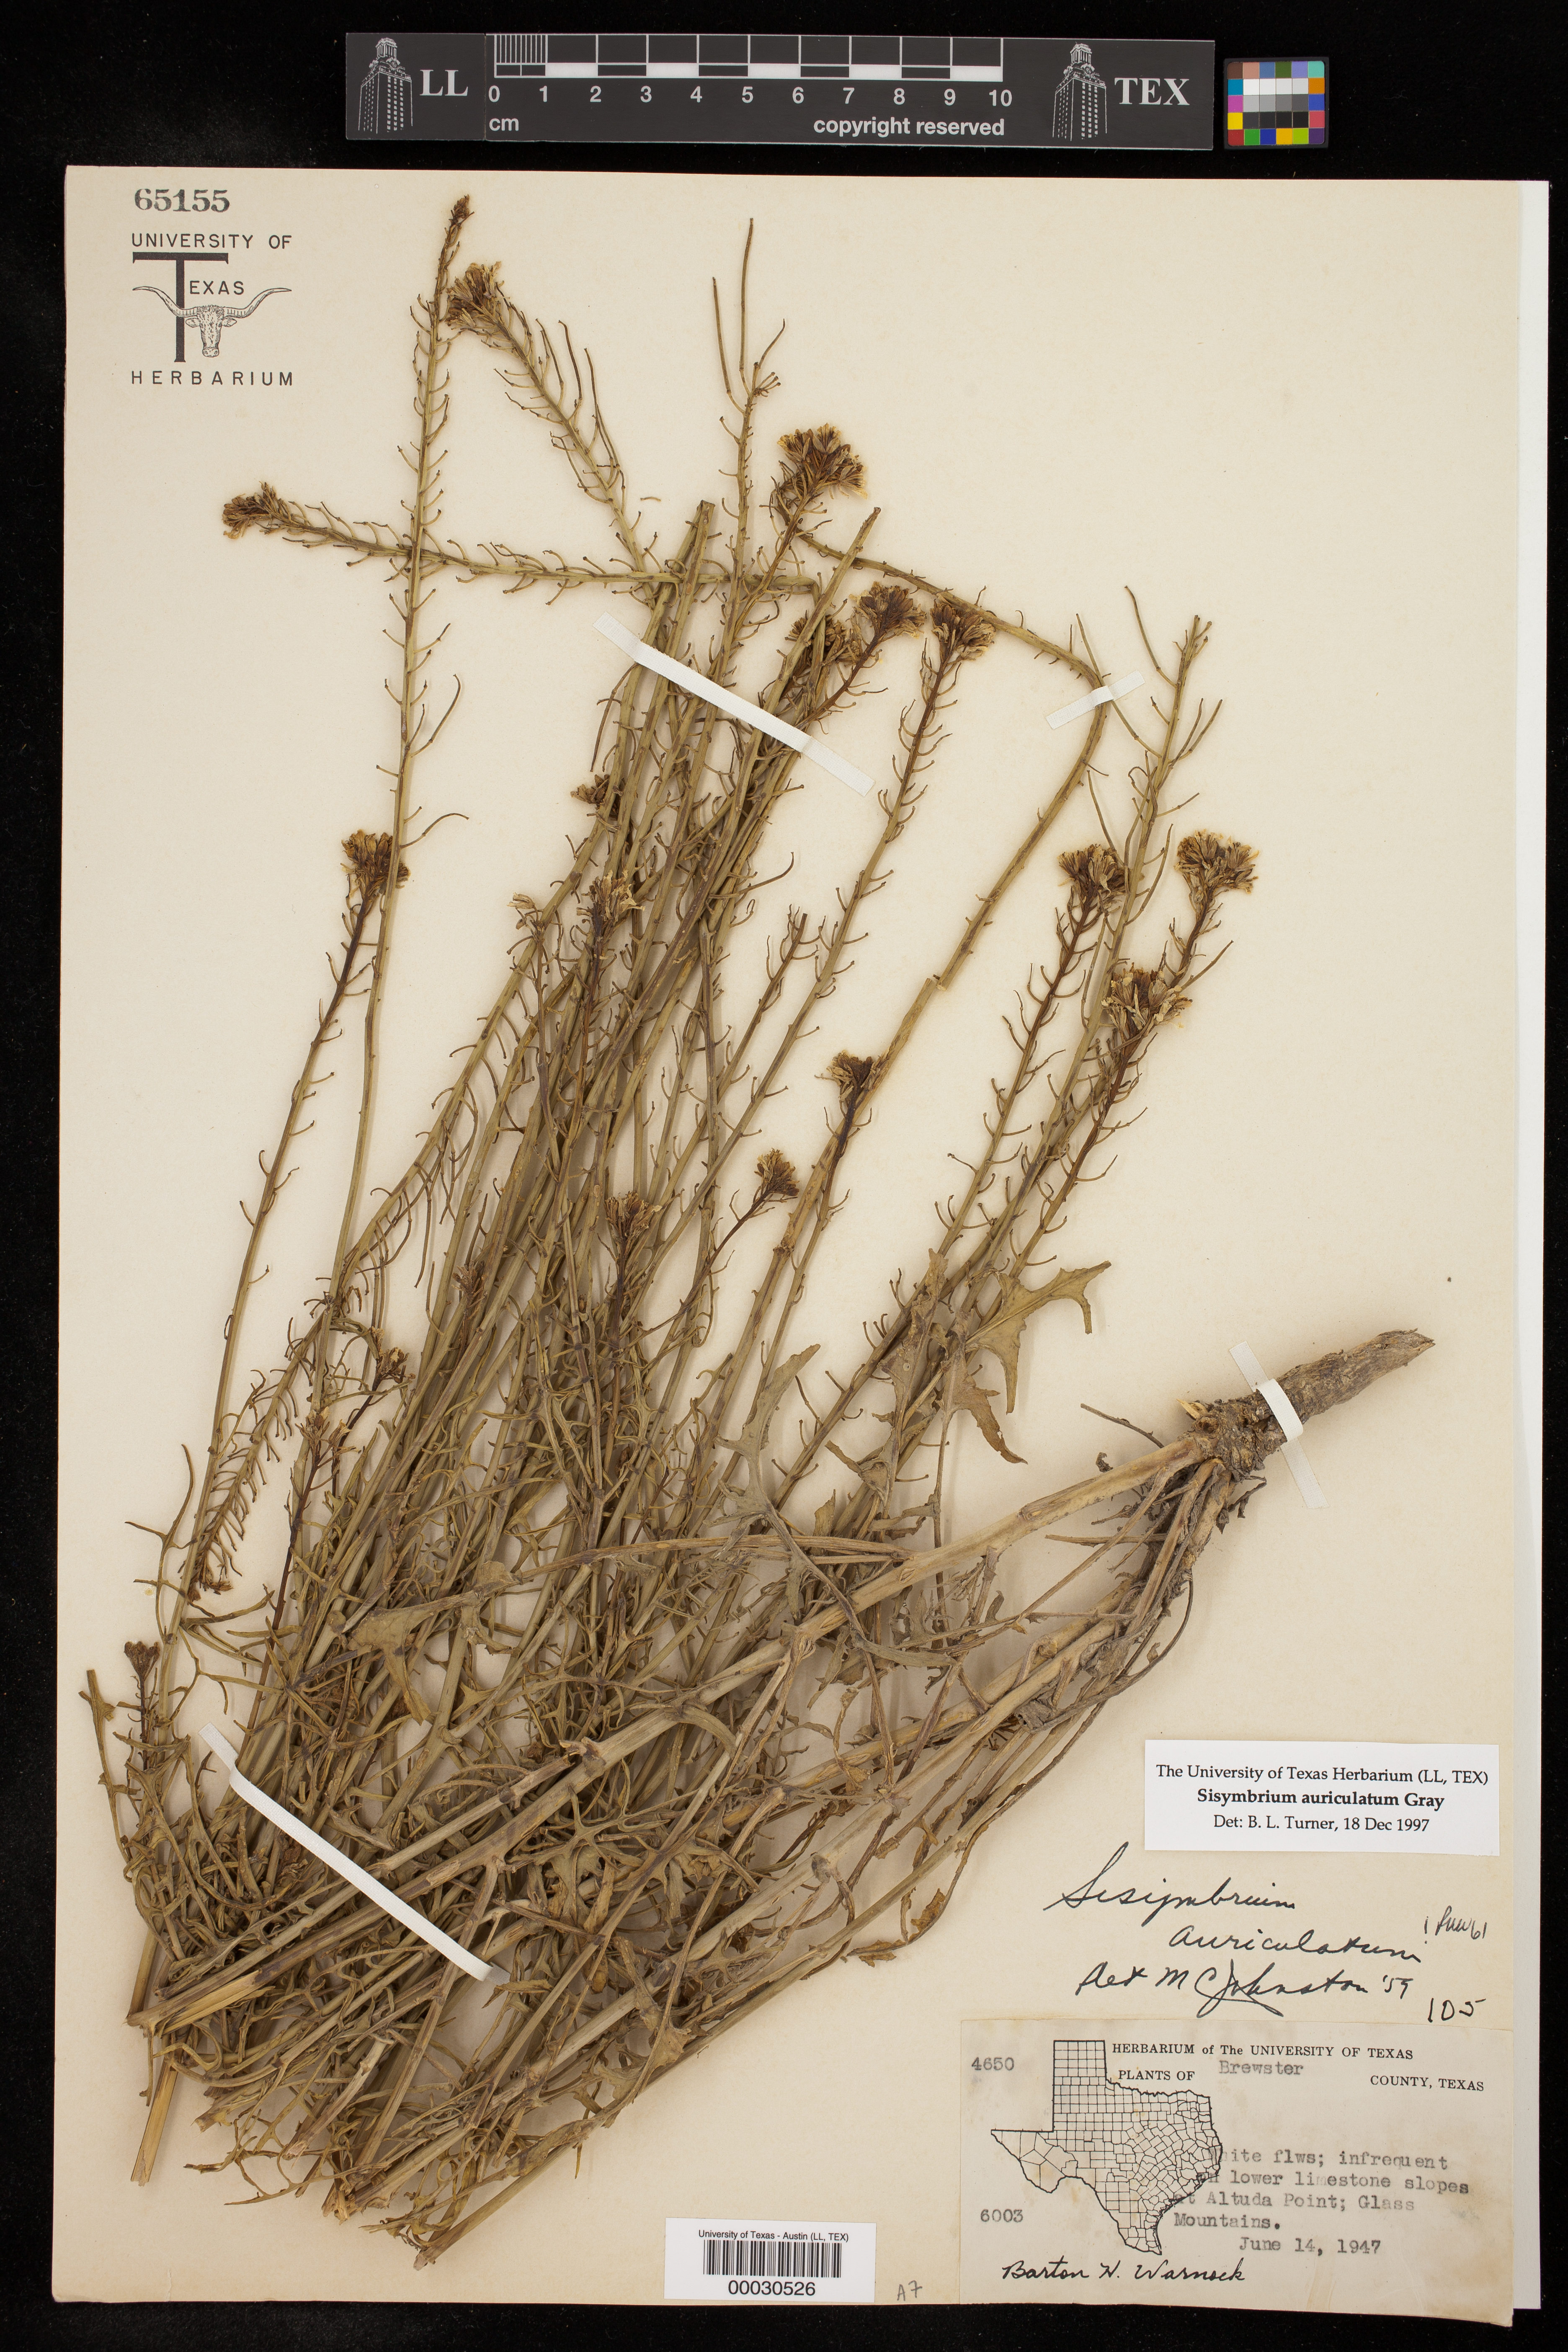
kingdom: Plantae
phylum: Tracheophyta
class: Magnoliopsida
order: Brassicales
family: Brassicaceae
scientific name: Brassicaceae
